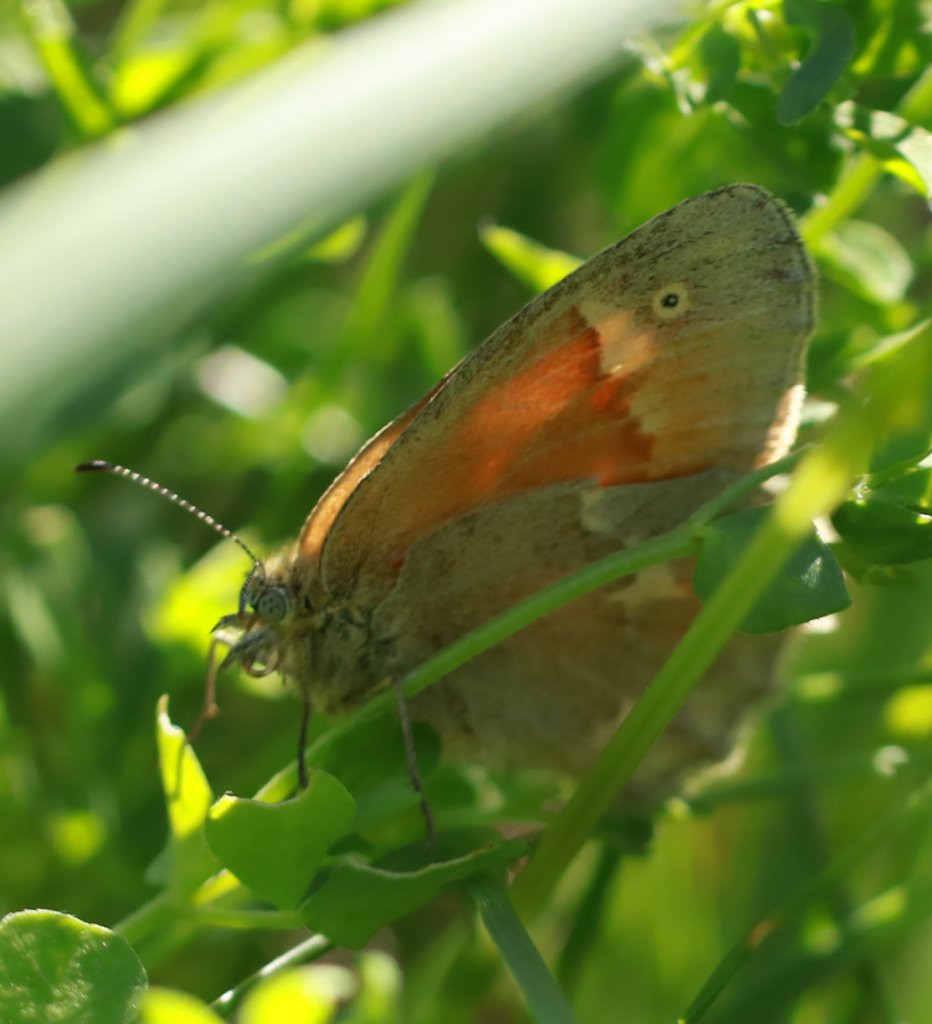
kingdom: Animalia
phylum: Arthropoda
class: Insecta
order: Lepidoptera
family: Nymphalidae
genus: Coenonympha
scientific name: Coenonympha tullia
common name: Large Heath
